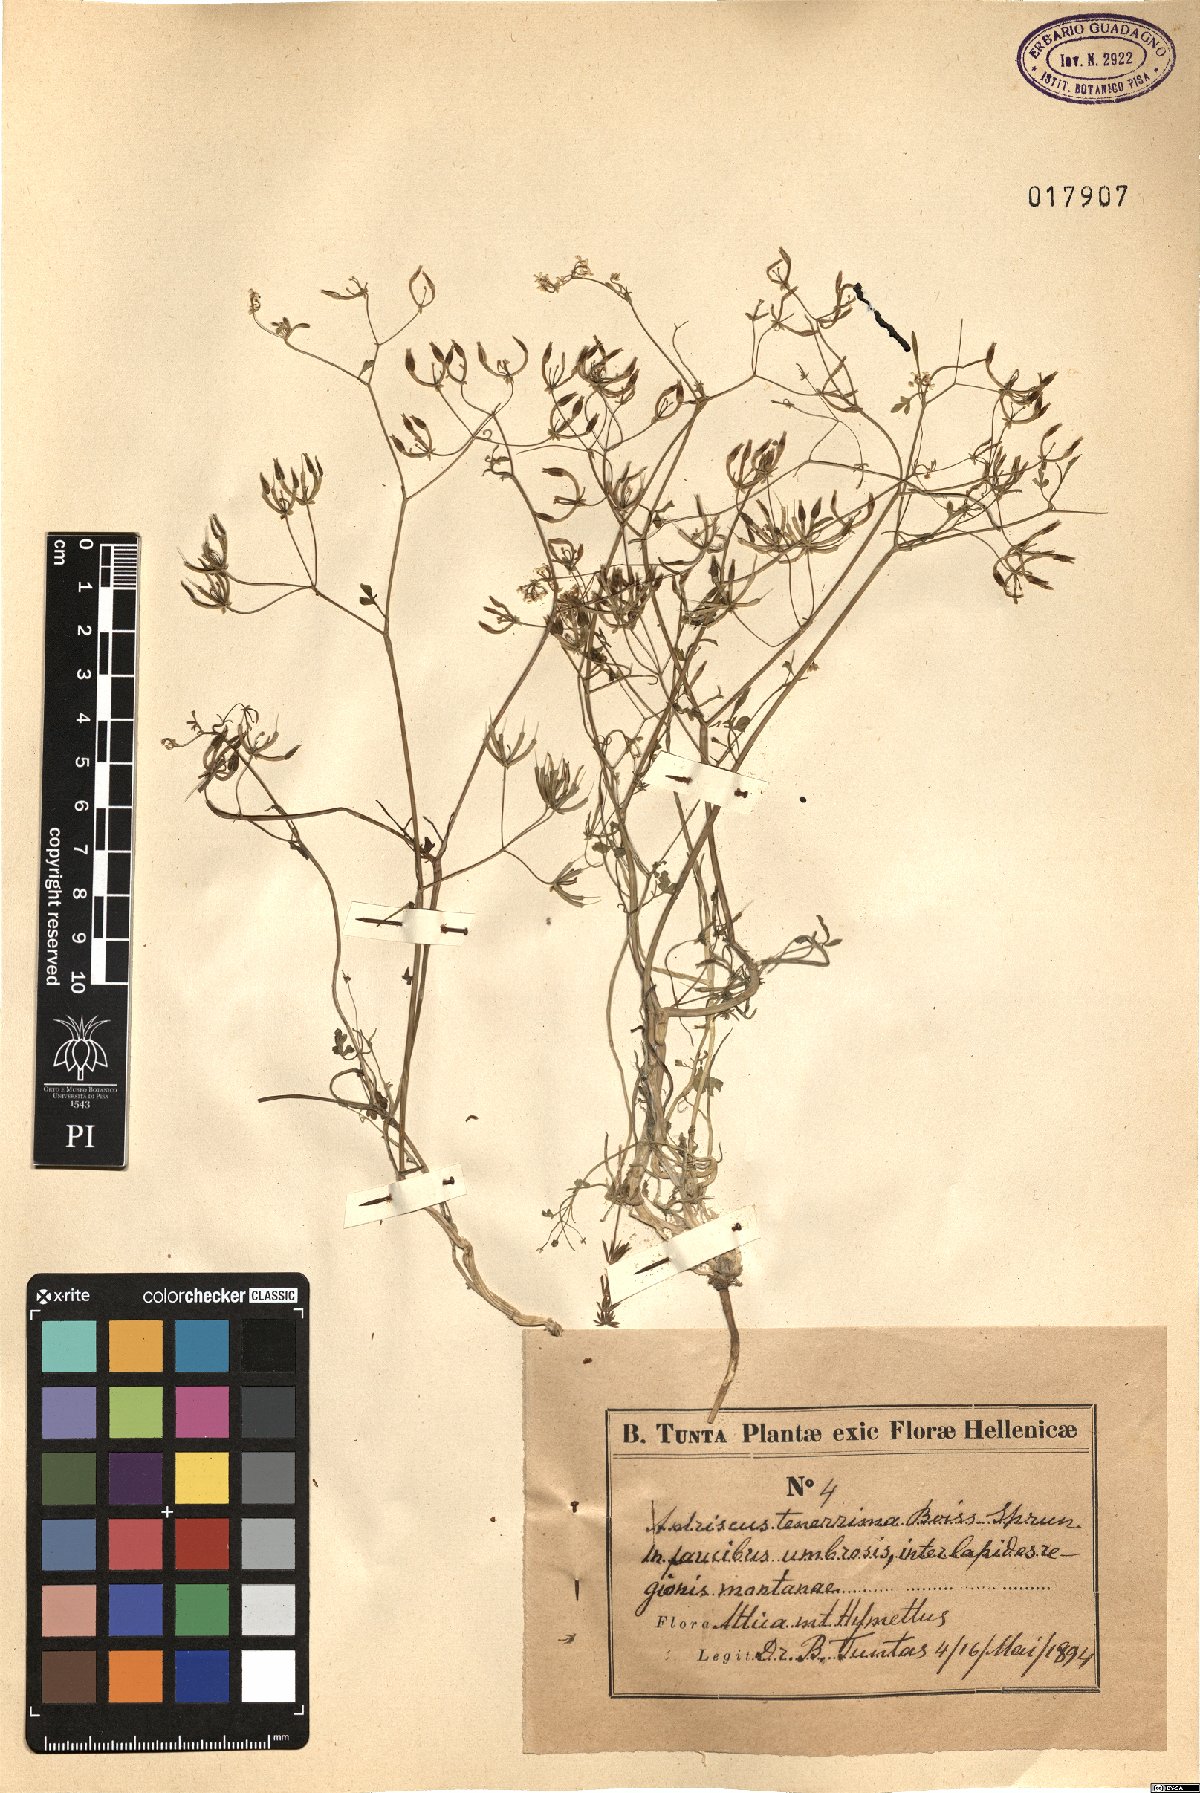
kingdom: Plantae
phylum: Tracheophyta
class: Magnoliopsida
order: Apiales
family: Apiaceae
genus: Anthriscus
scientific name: Anthriscus tenerrima
